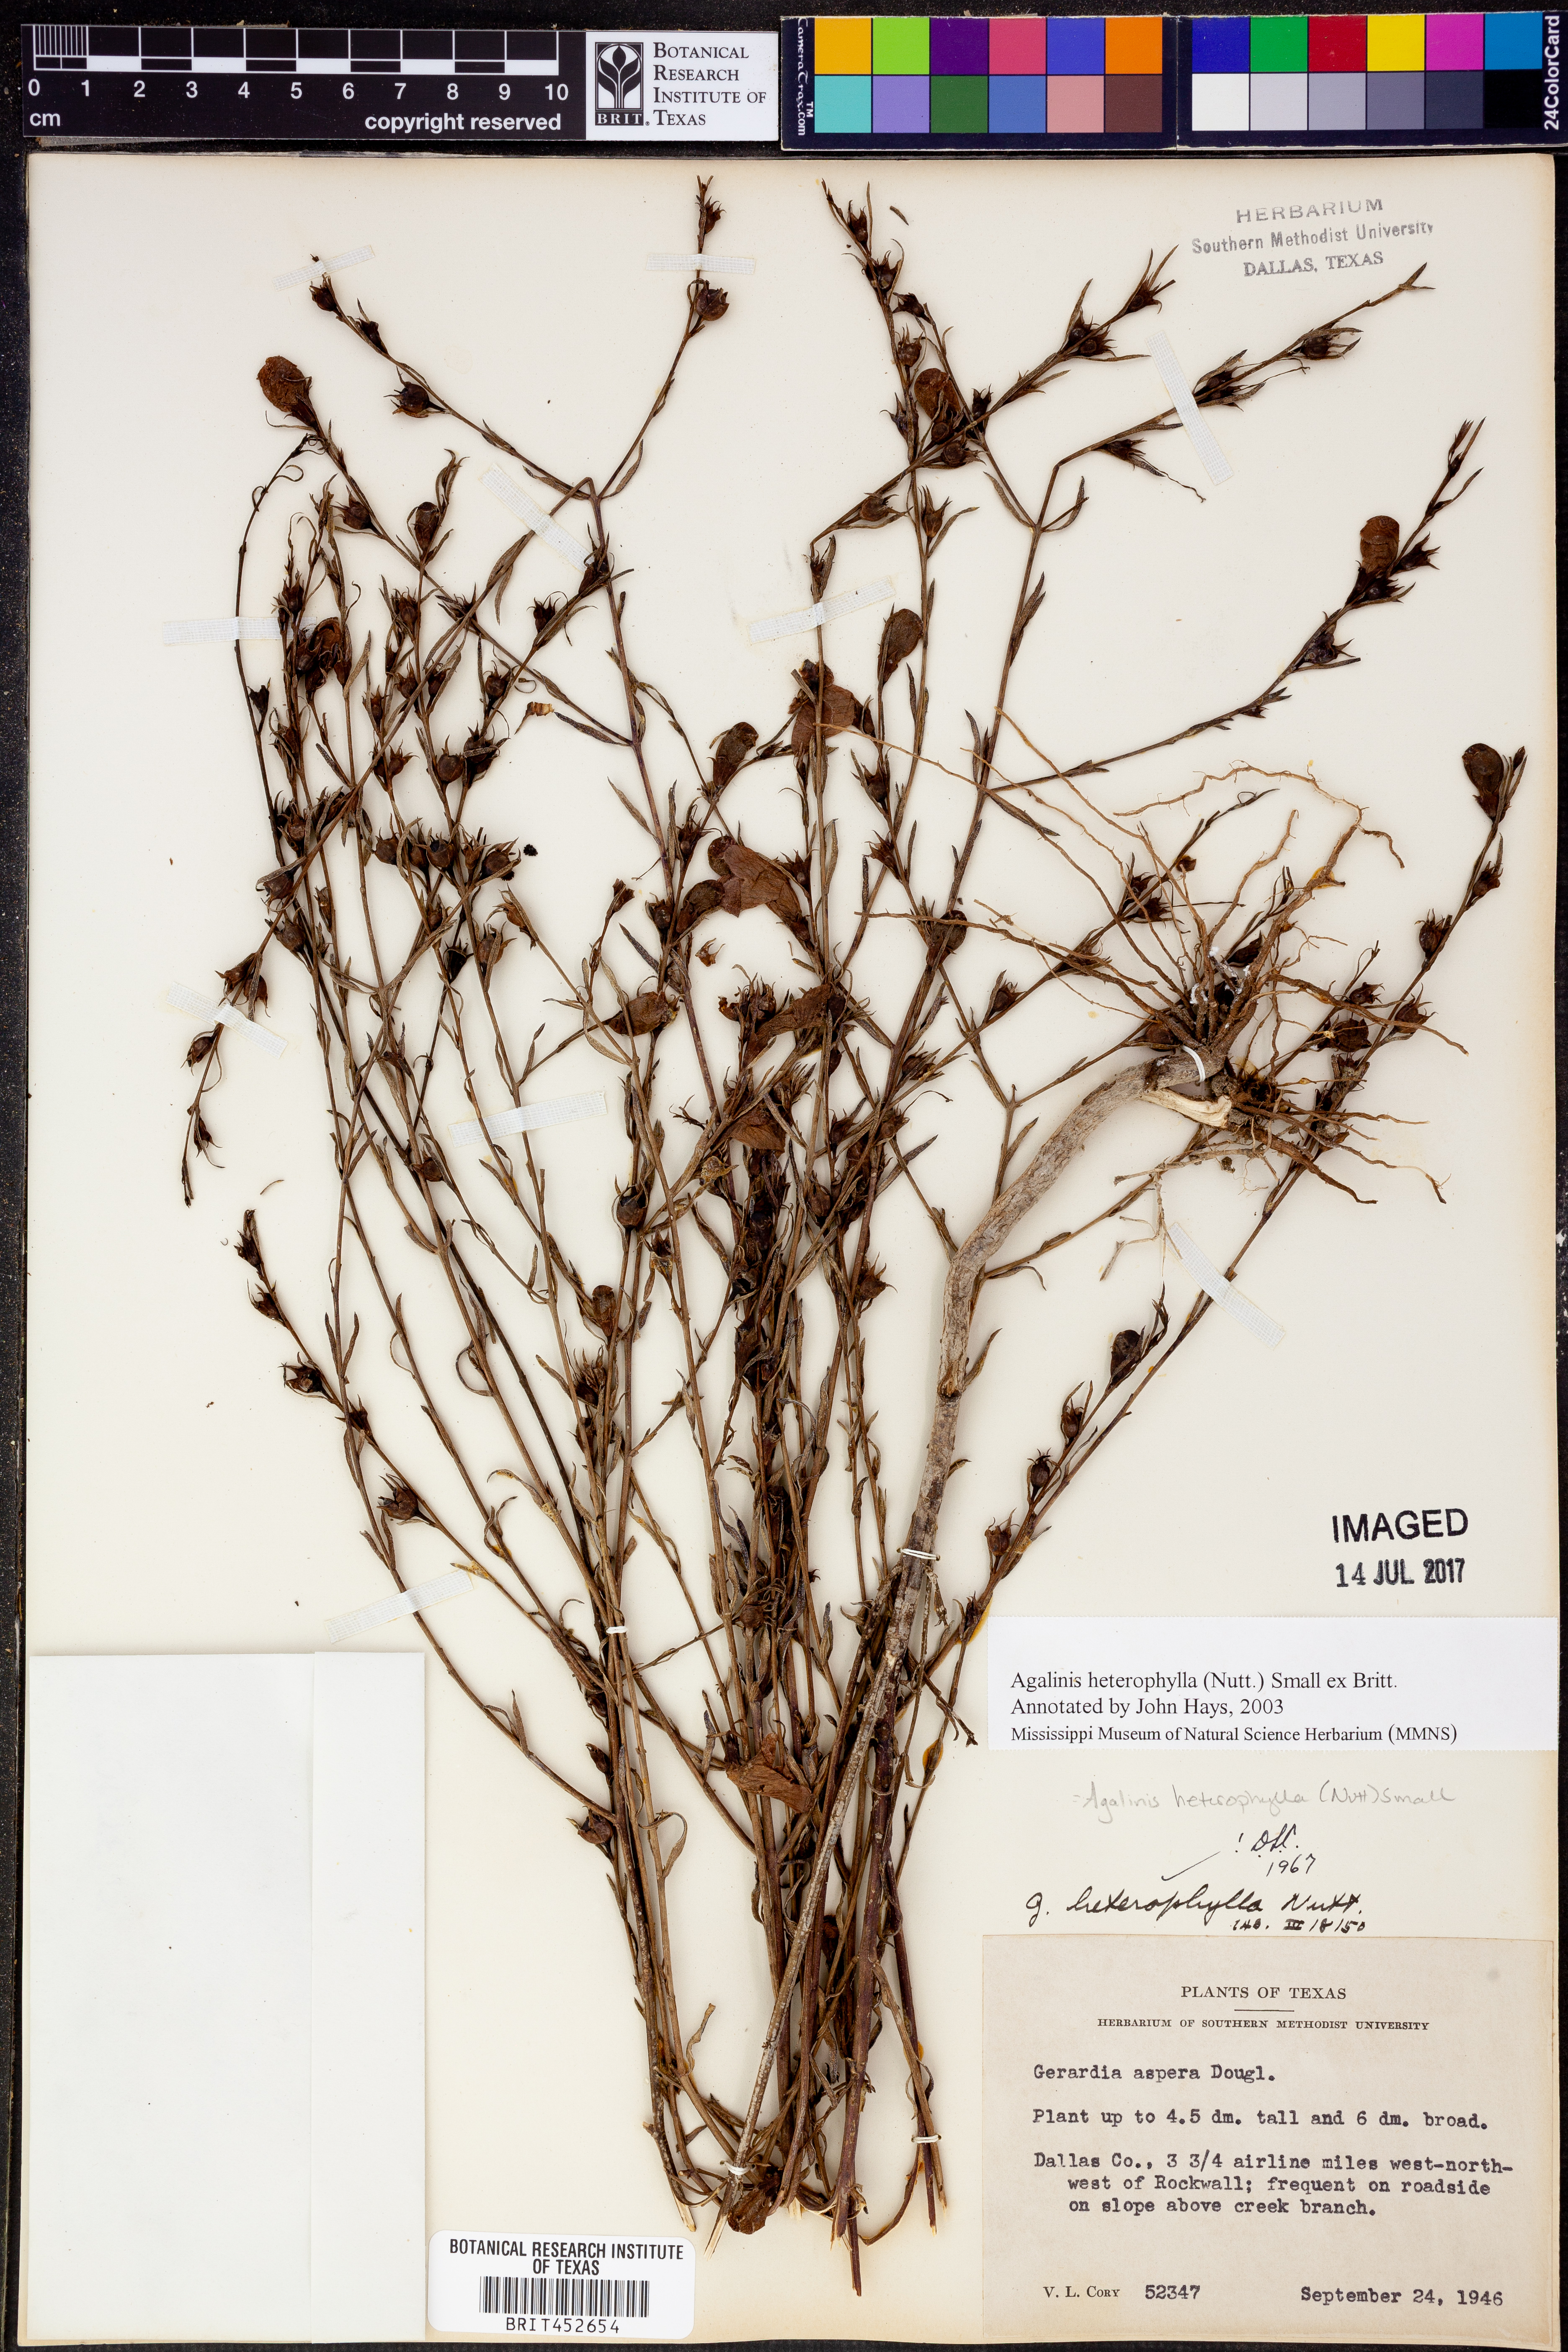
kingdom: Plantae
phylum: Tracheophyta
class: Magnoliopsida
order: Lamiales
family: Orobanchaceae
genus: Agalinis
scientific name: Agalinis heterophylla
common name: Prairie agalinis
